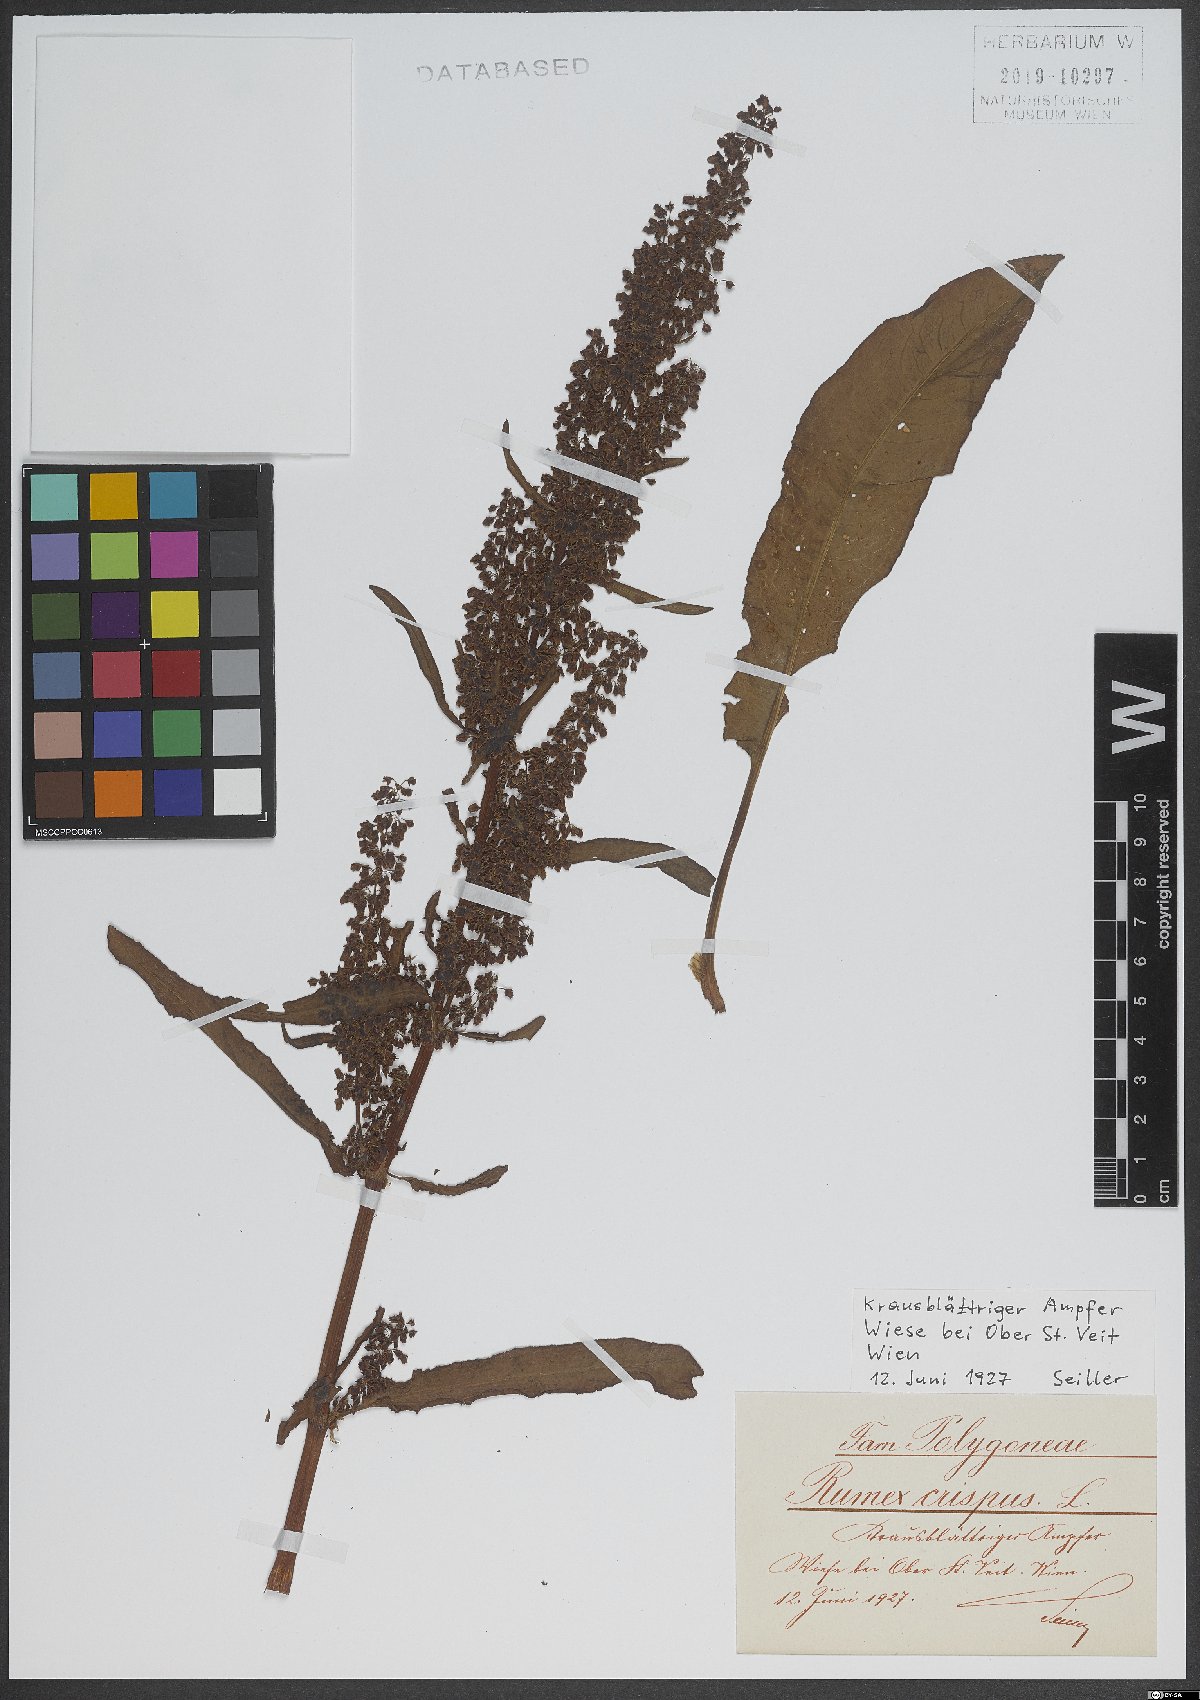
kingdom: Plantae
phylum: Tracheophyta
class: Magnoliopsida
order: Caryophyllales
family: Polygonaceae
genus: Rumex
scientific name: Rumex crispus
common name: Curled dock
